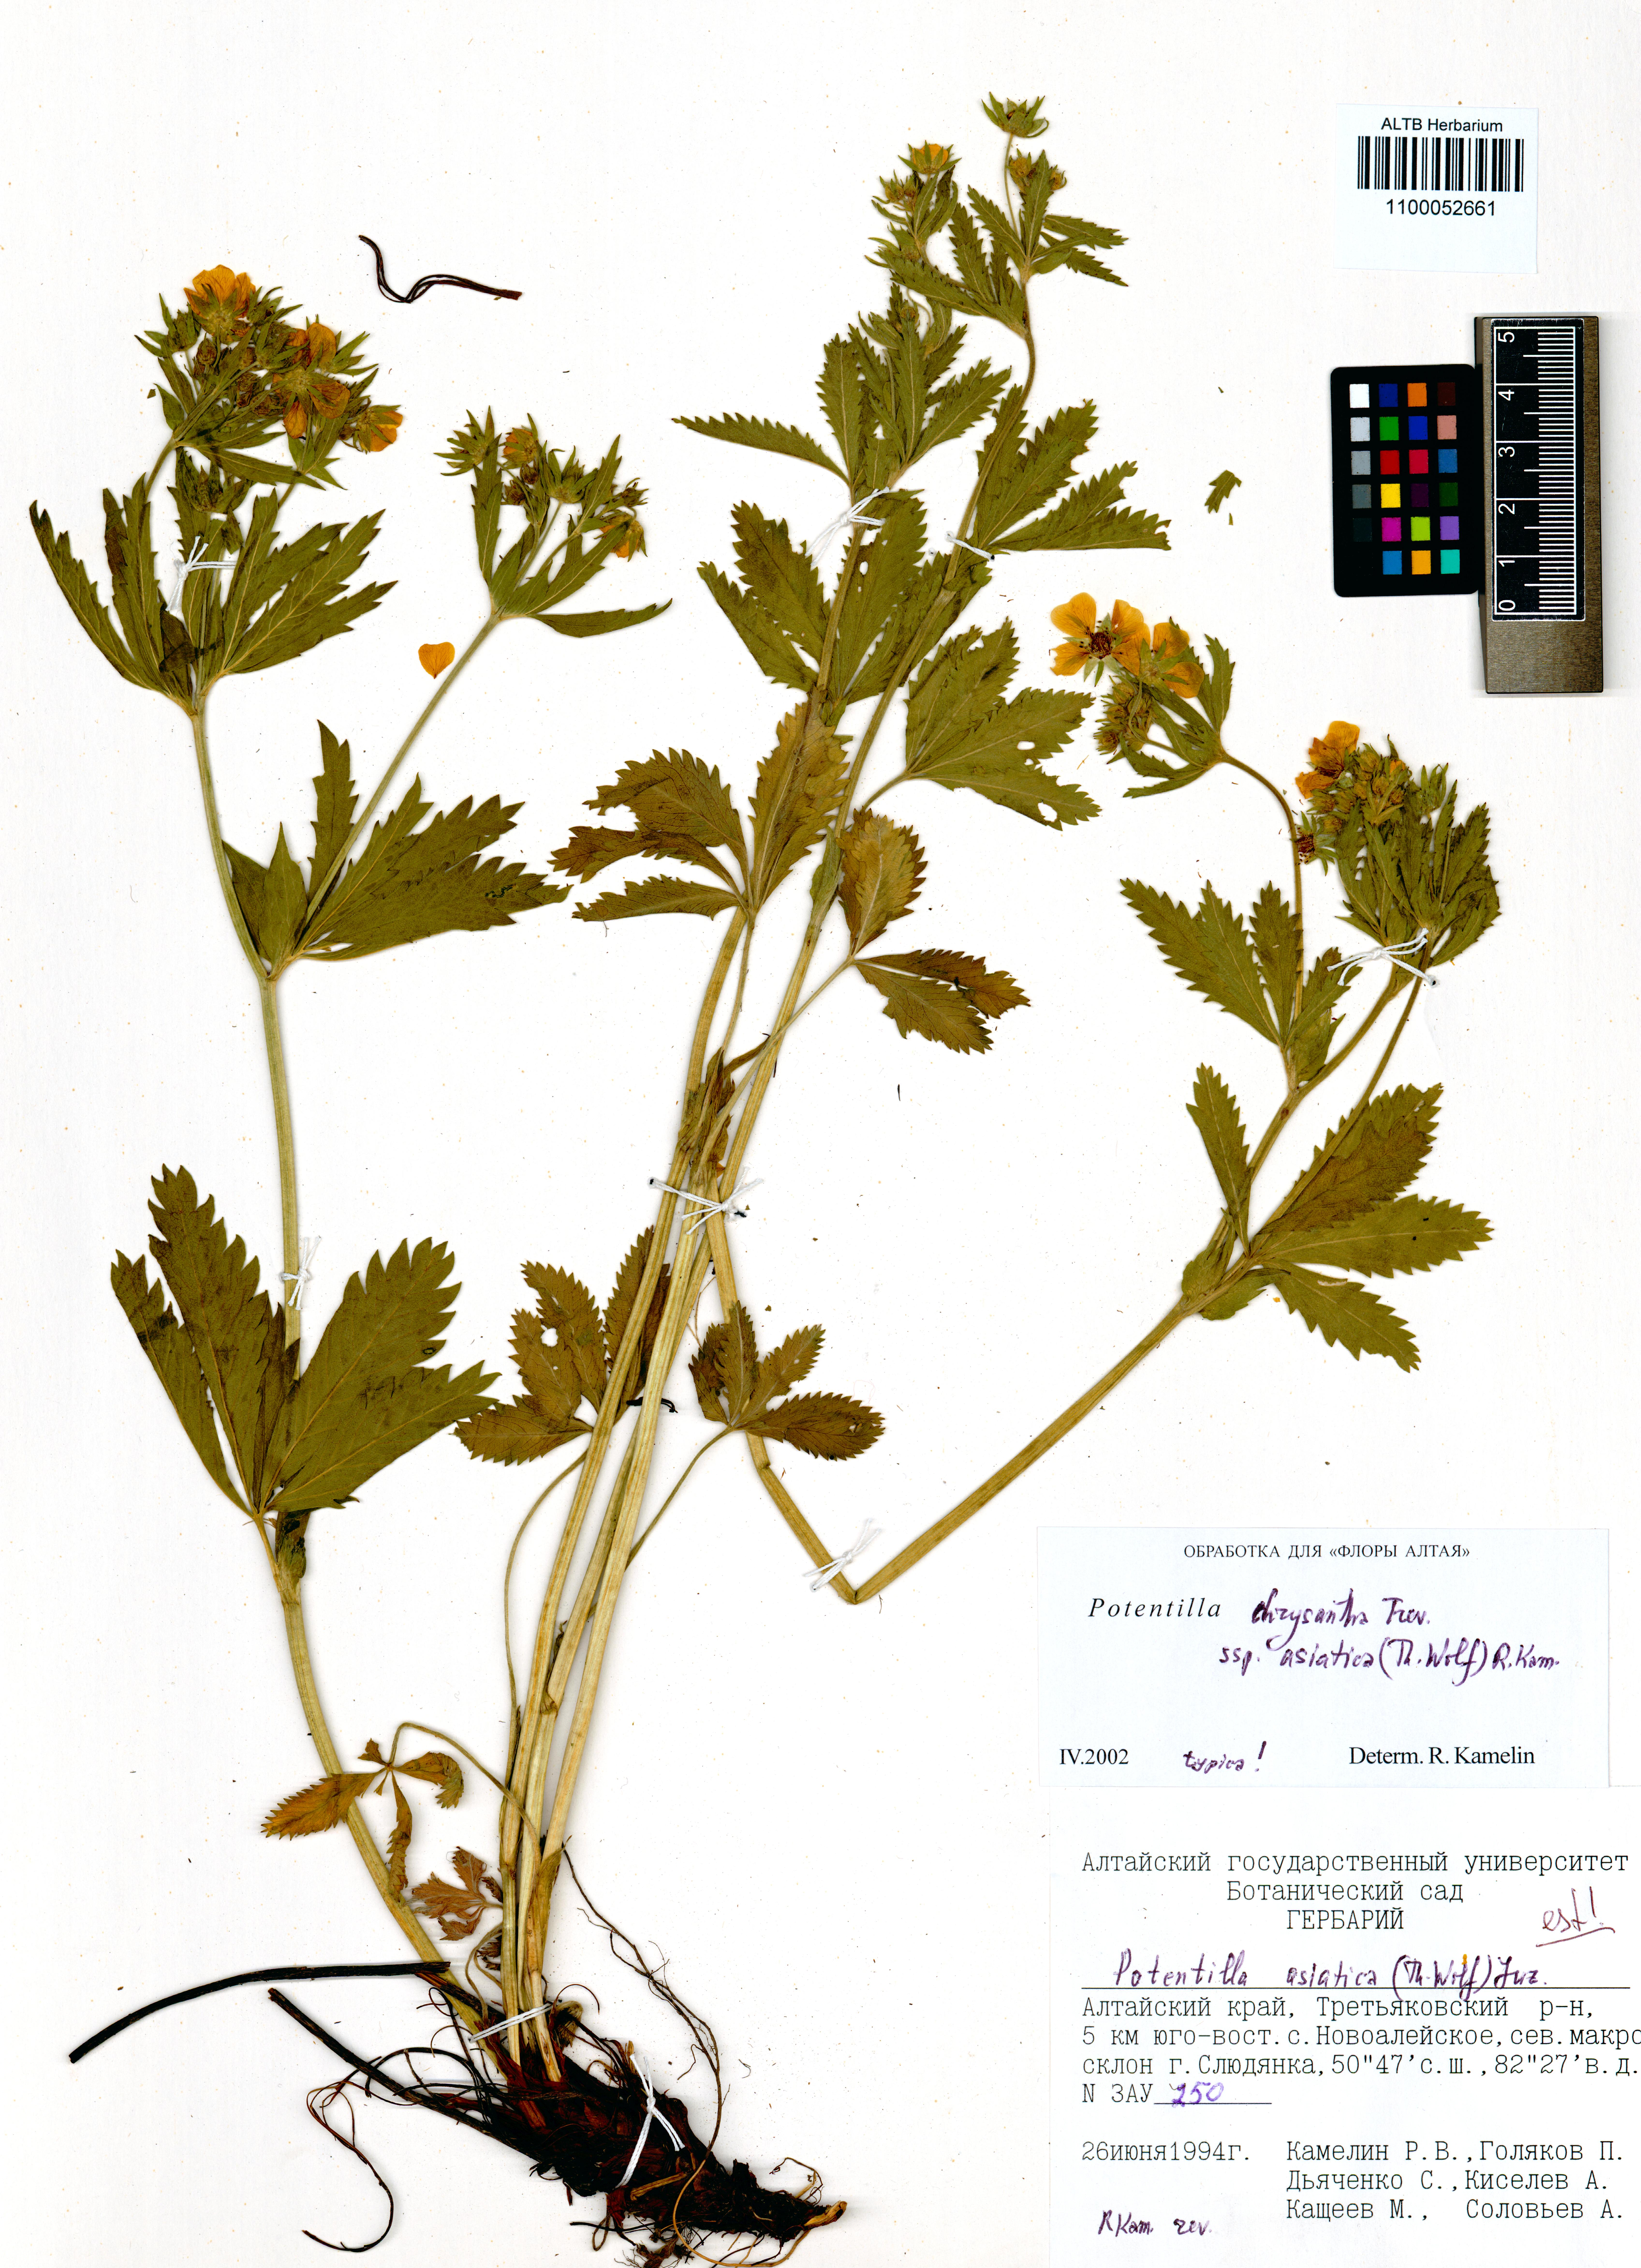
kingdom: Plantae
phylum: Tracheophyta
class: Magnoliopsida
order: Rosales
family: Rosaceae
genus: Potentilla
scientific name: Potentilla asiatica
